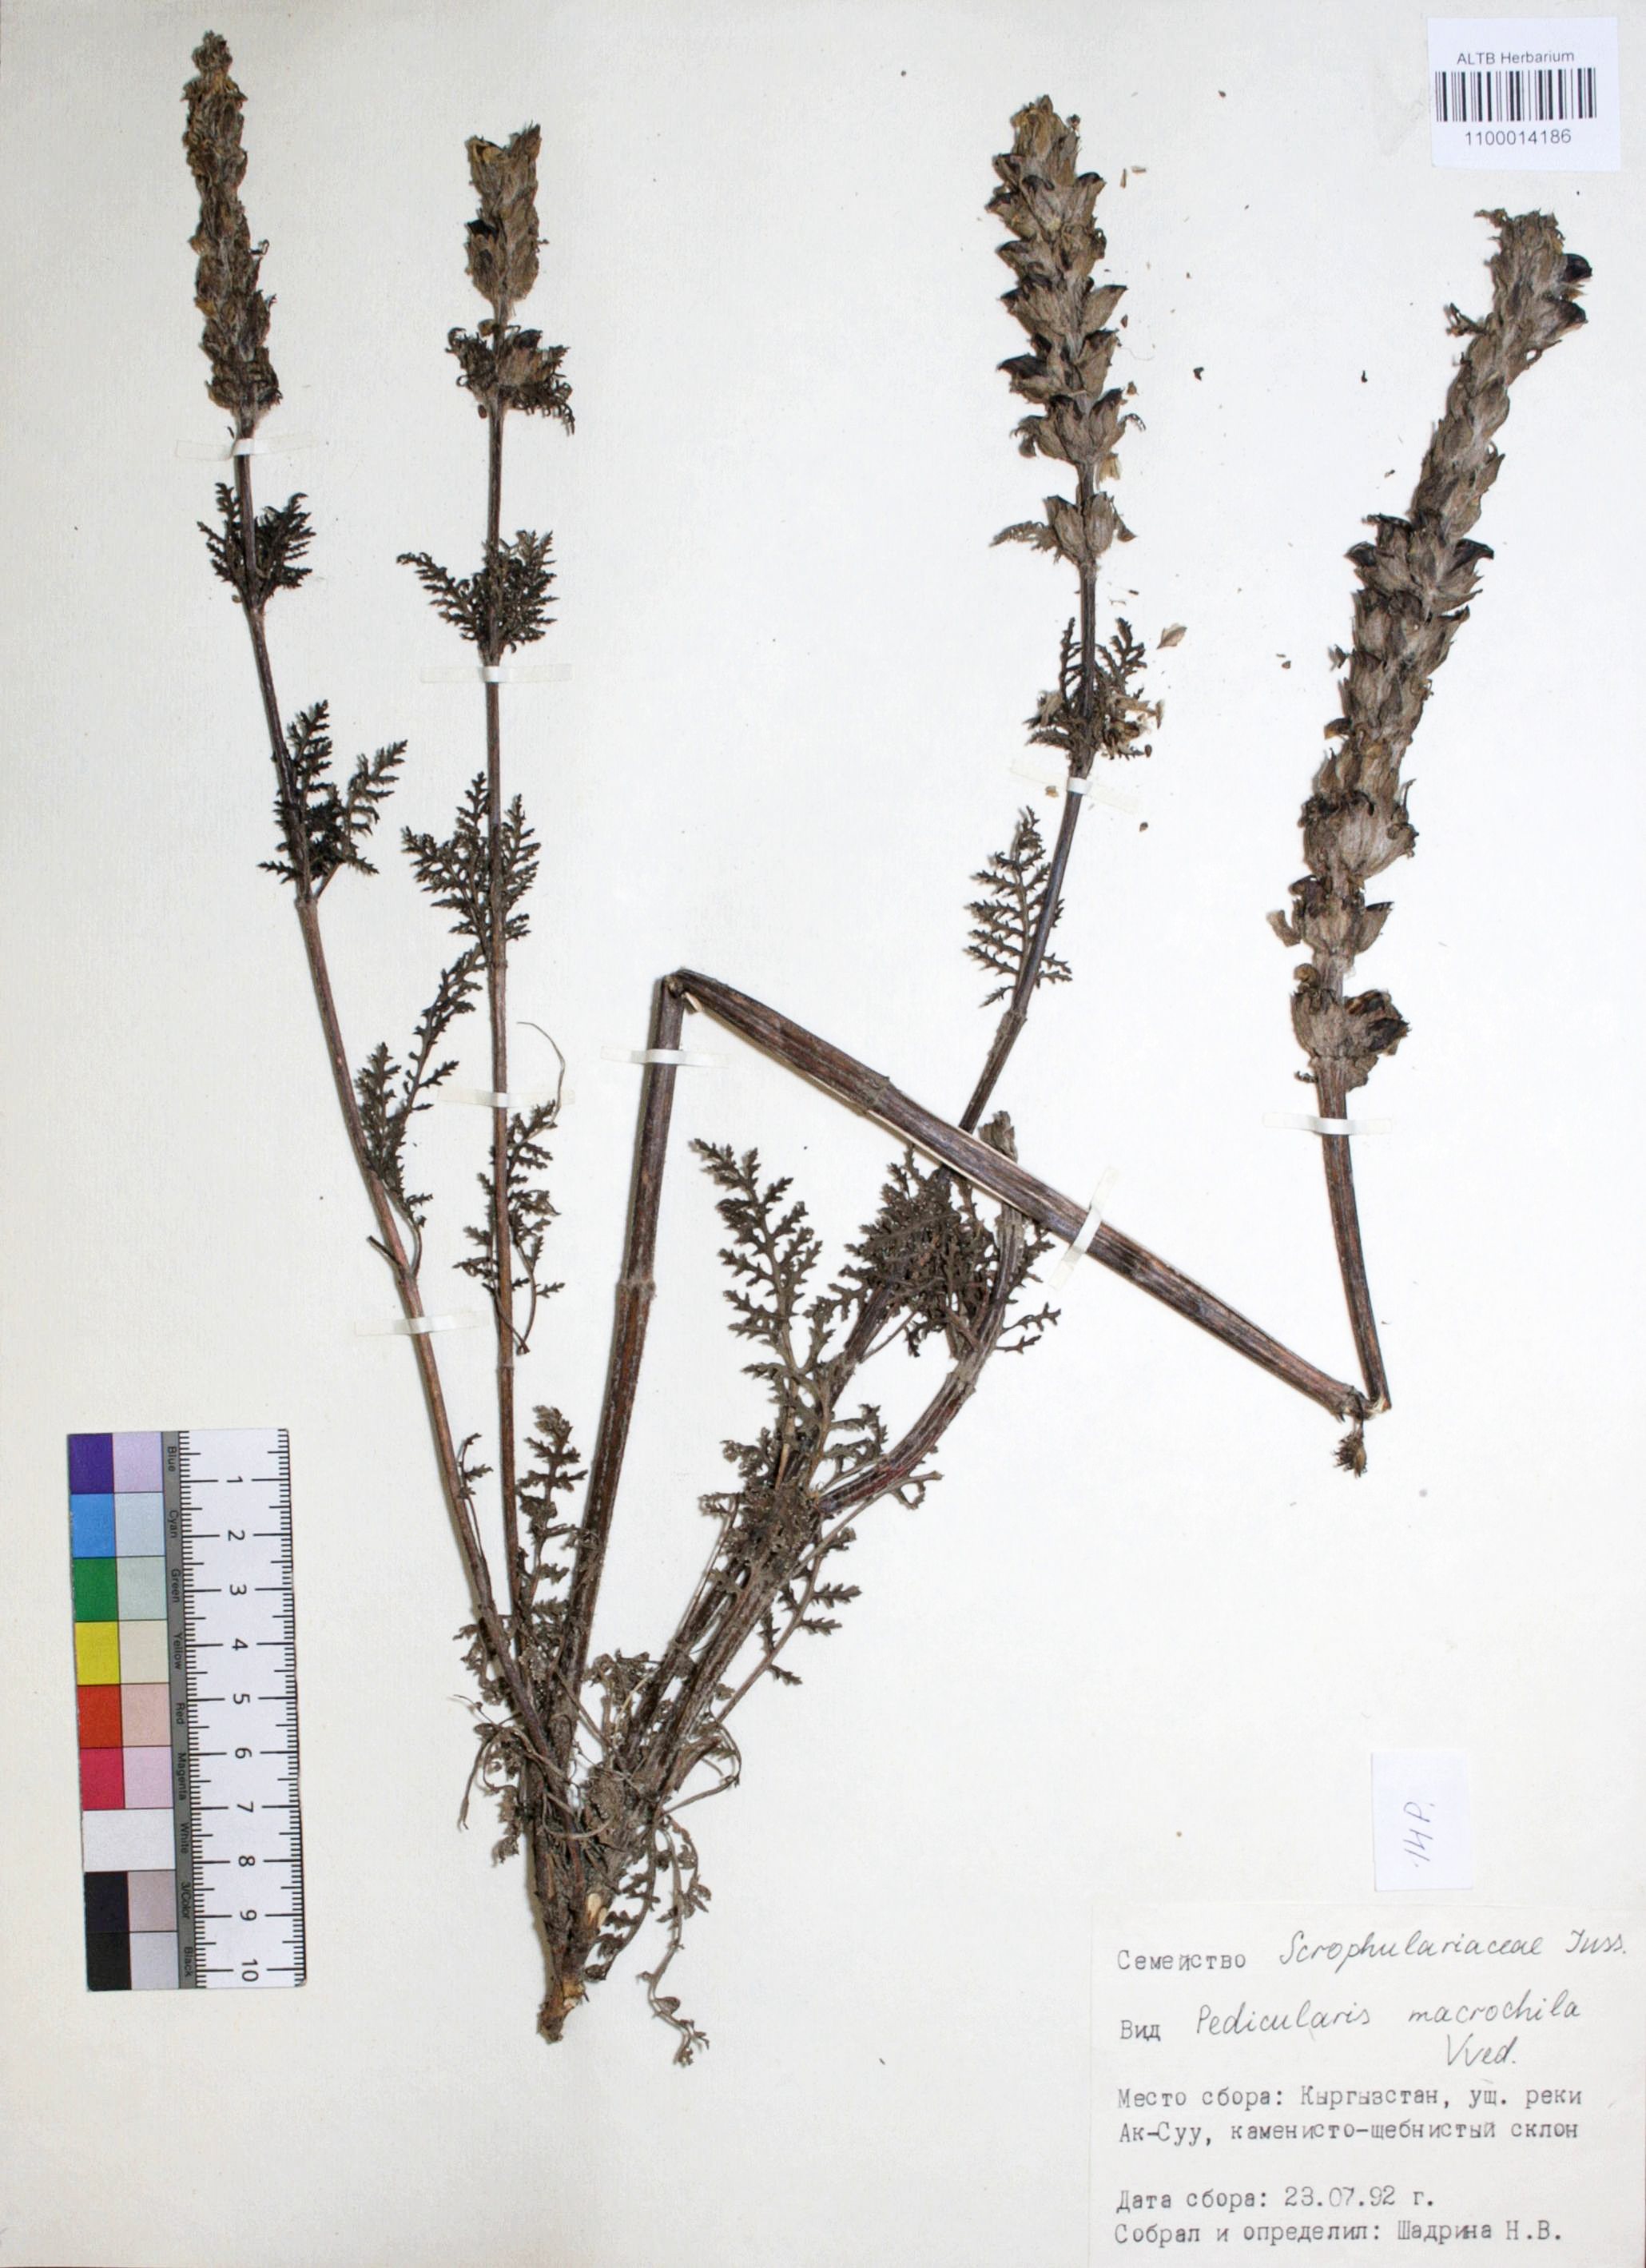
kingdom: Plantae
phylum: Tracheophyta
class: Magnoliopsida
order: Lamiales
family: Orobanchaceae
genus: Pedicularis
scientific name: Pedicularis macrochila
